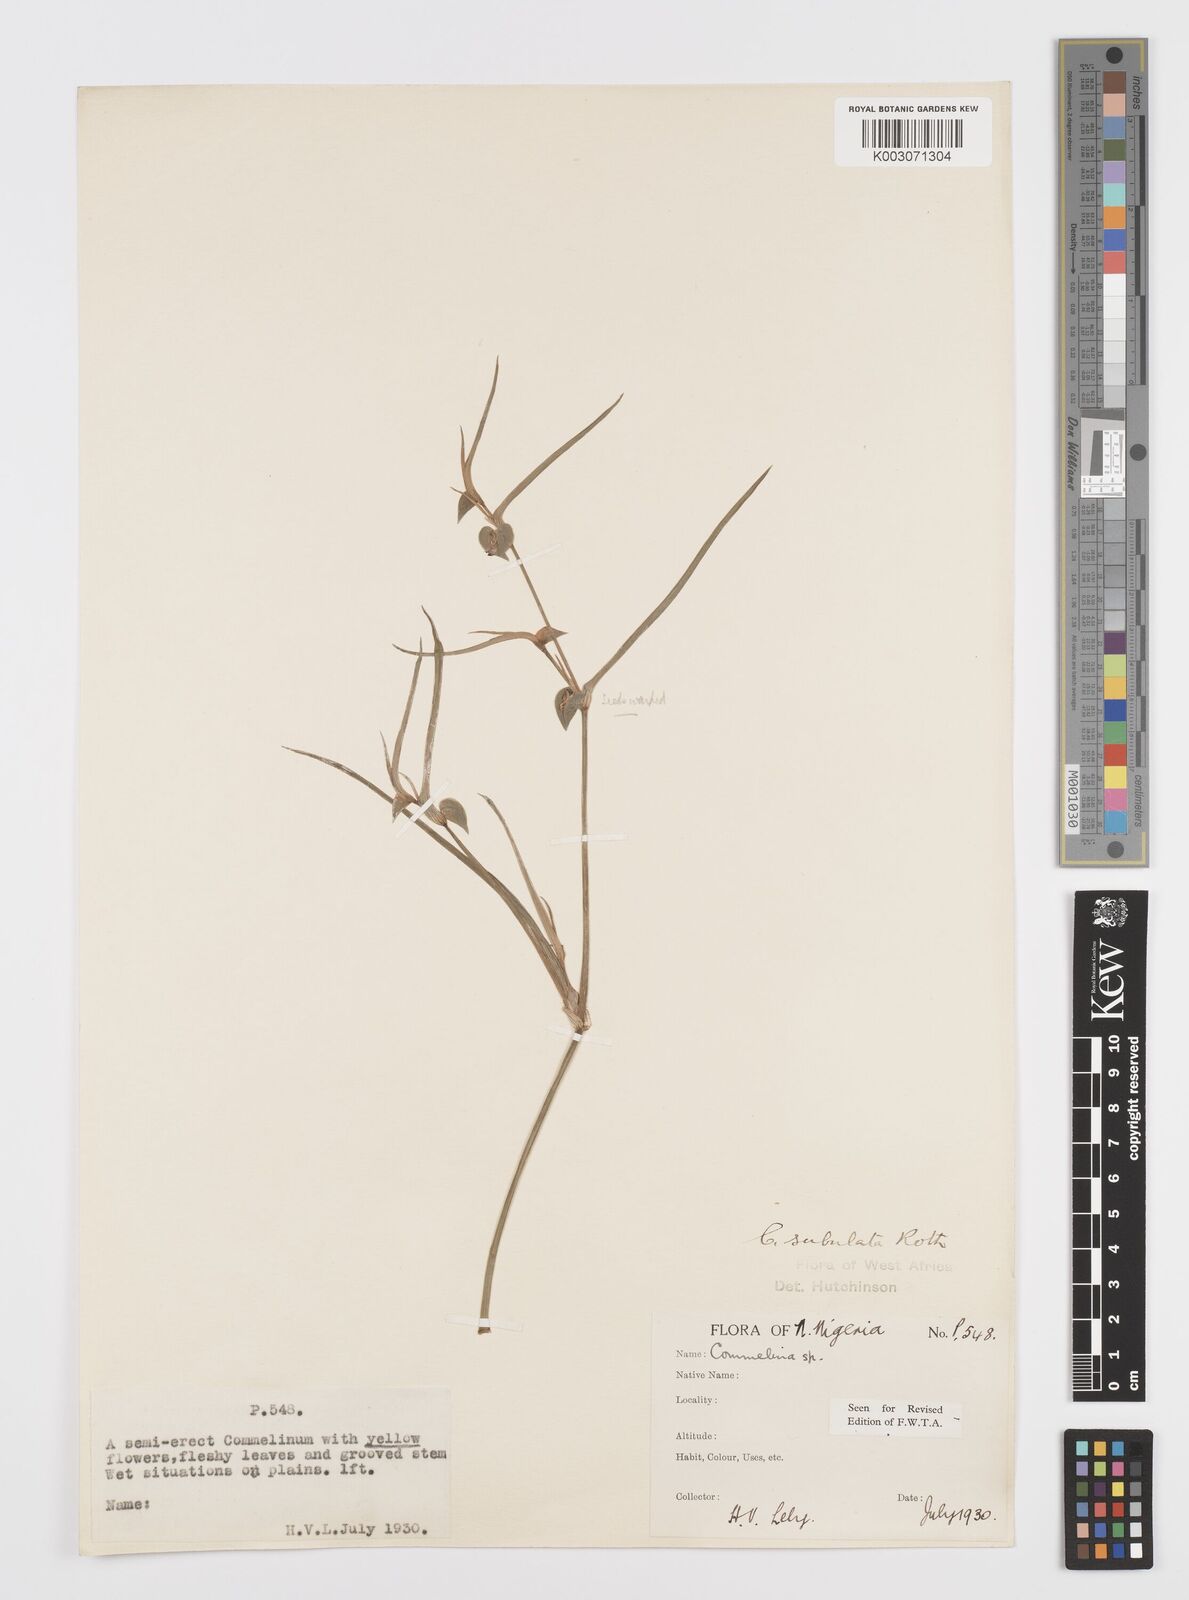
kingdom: Plantae
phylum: Tracheophyta
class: Liliopsida
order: Commelinales
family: Commelinaceae
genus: Commelina
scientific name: Commelina subulata
